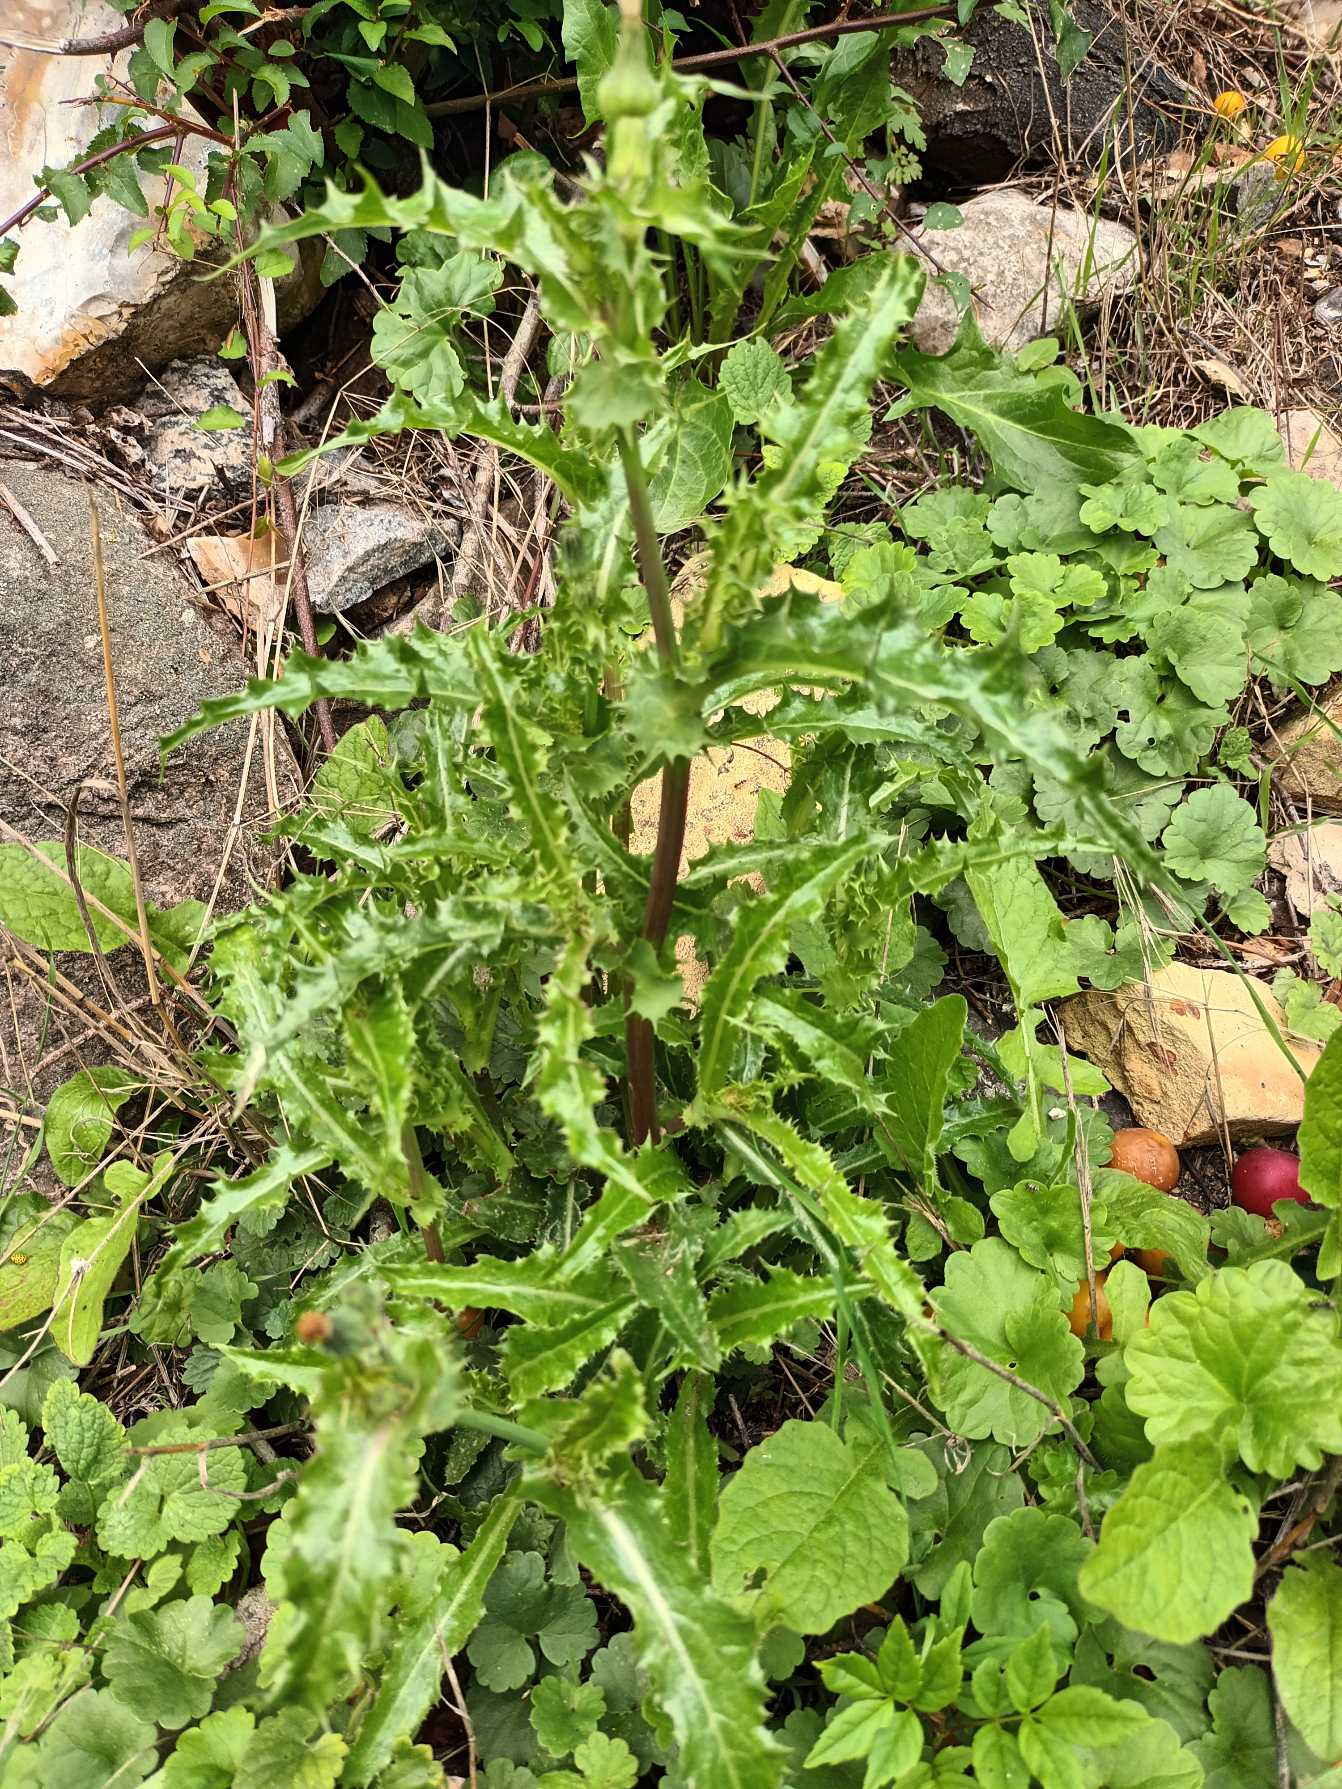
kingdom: Plantae
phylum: Tracheophyta
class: Magnoliopsida
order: Asterales
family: Asteraceae
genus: Sonchus
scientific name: Sonchus asper
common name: Ru svinemælk
